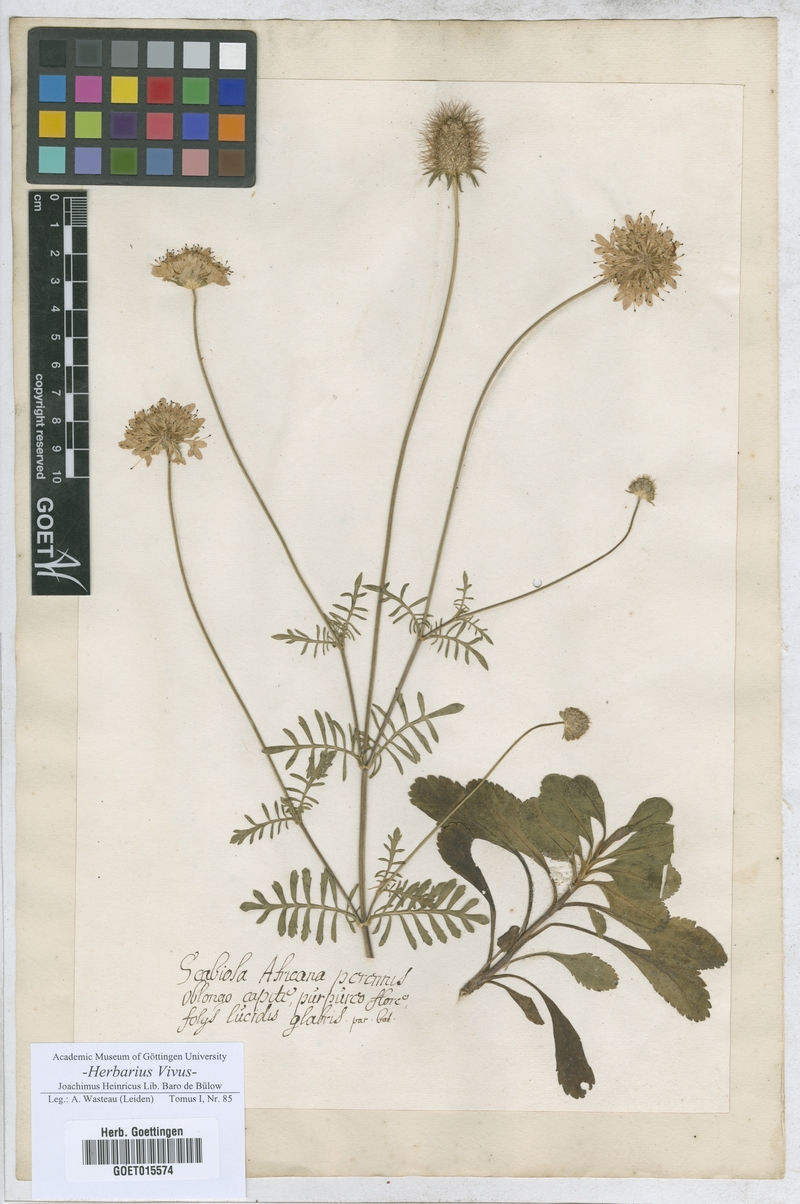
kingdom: Plantae
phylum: Tracheophyta
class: Magnoliopsida
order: Dipsacales
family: Caprifoliaceae
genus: Scabiosa
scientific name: Scabiosa africana
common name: Cape scabious
